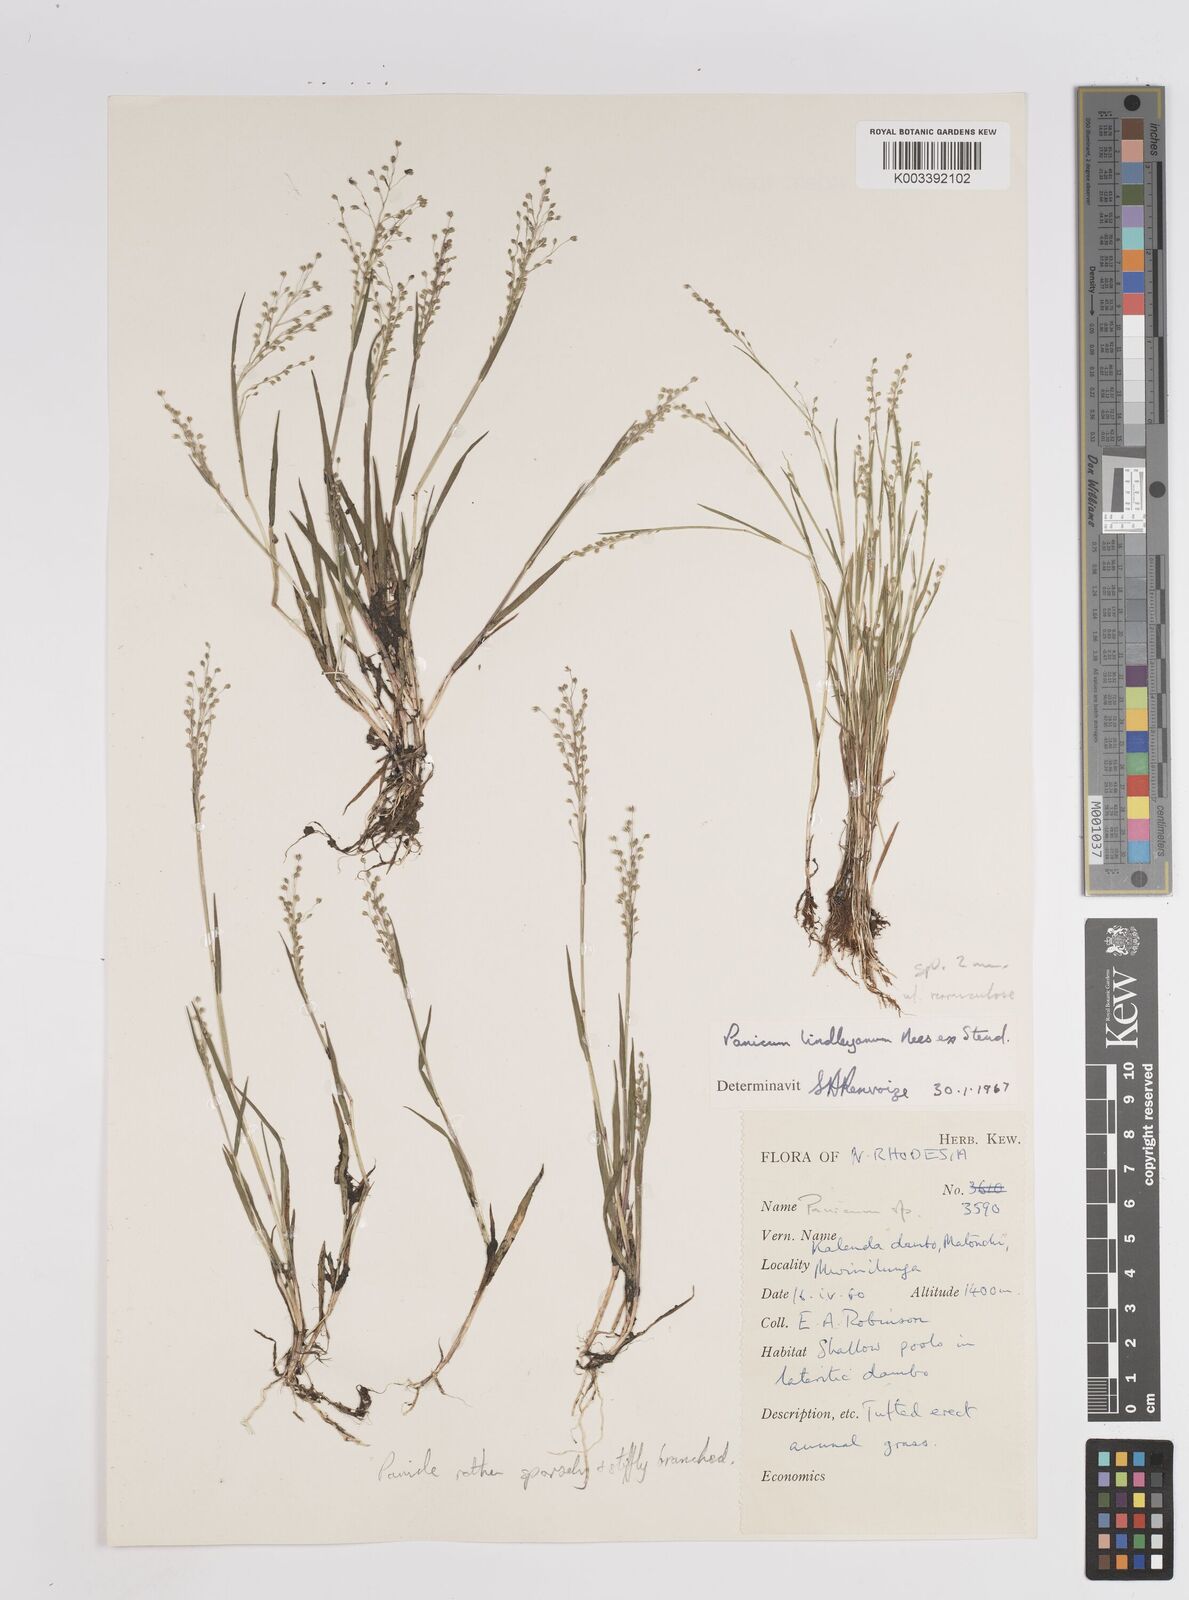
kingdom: Plantae
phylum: Tracheophyta
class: Liliopsida
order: Poales
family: Poaceae
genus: Trichanthecium
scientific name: Trichanthecium tenellum
